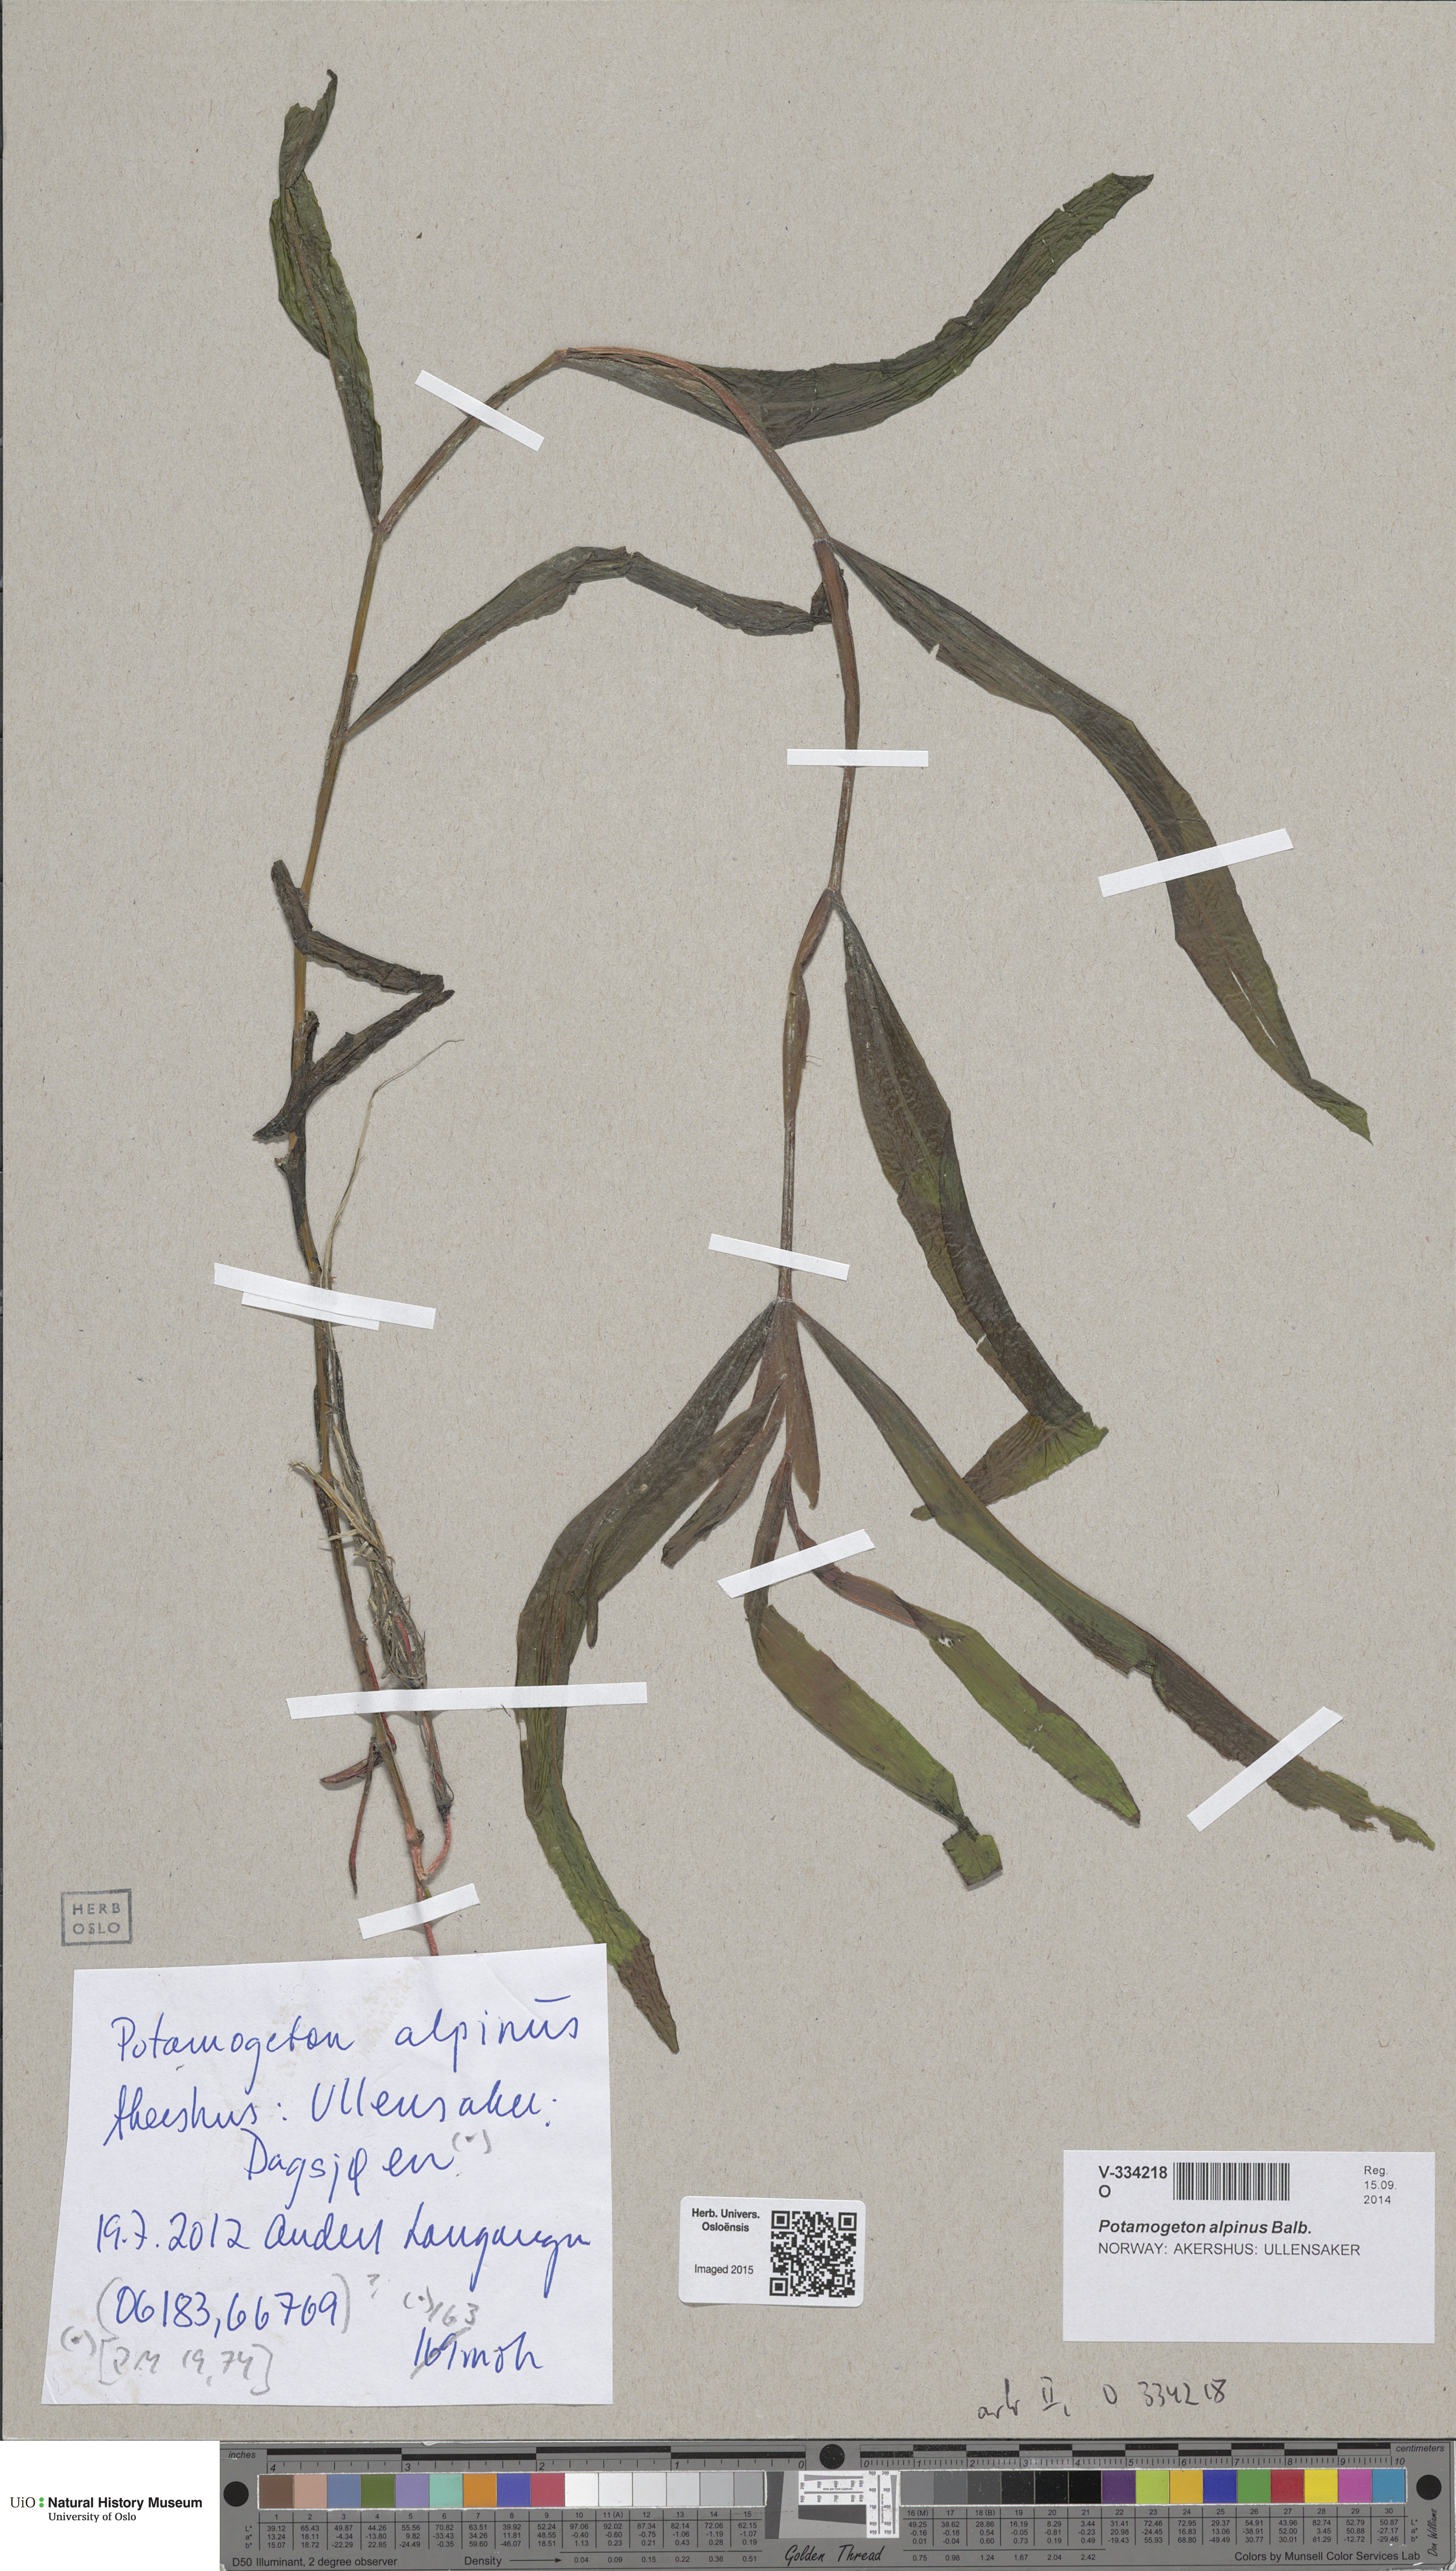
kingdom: Plantae
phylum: Tracheophyta
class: Liliopsida
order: Alismatales
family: Potamogetonaceae
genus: Potamogeton
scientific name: Potamogeton alpinus
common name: Red pondweed
